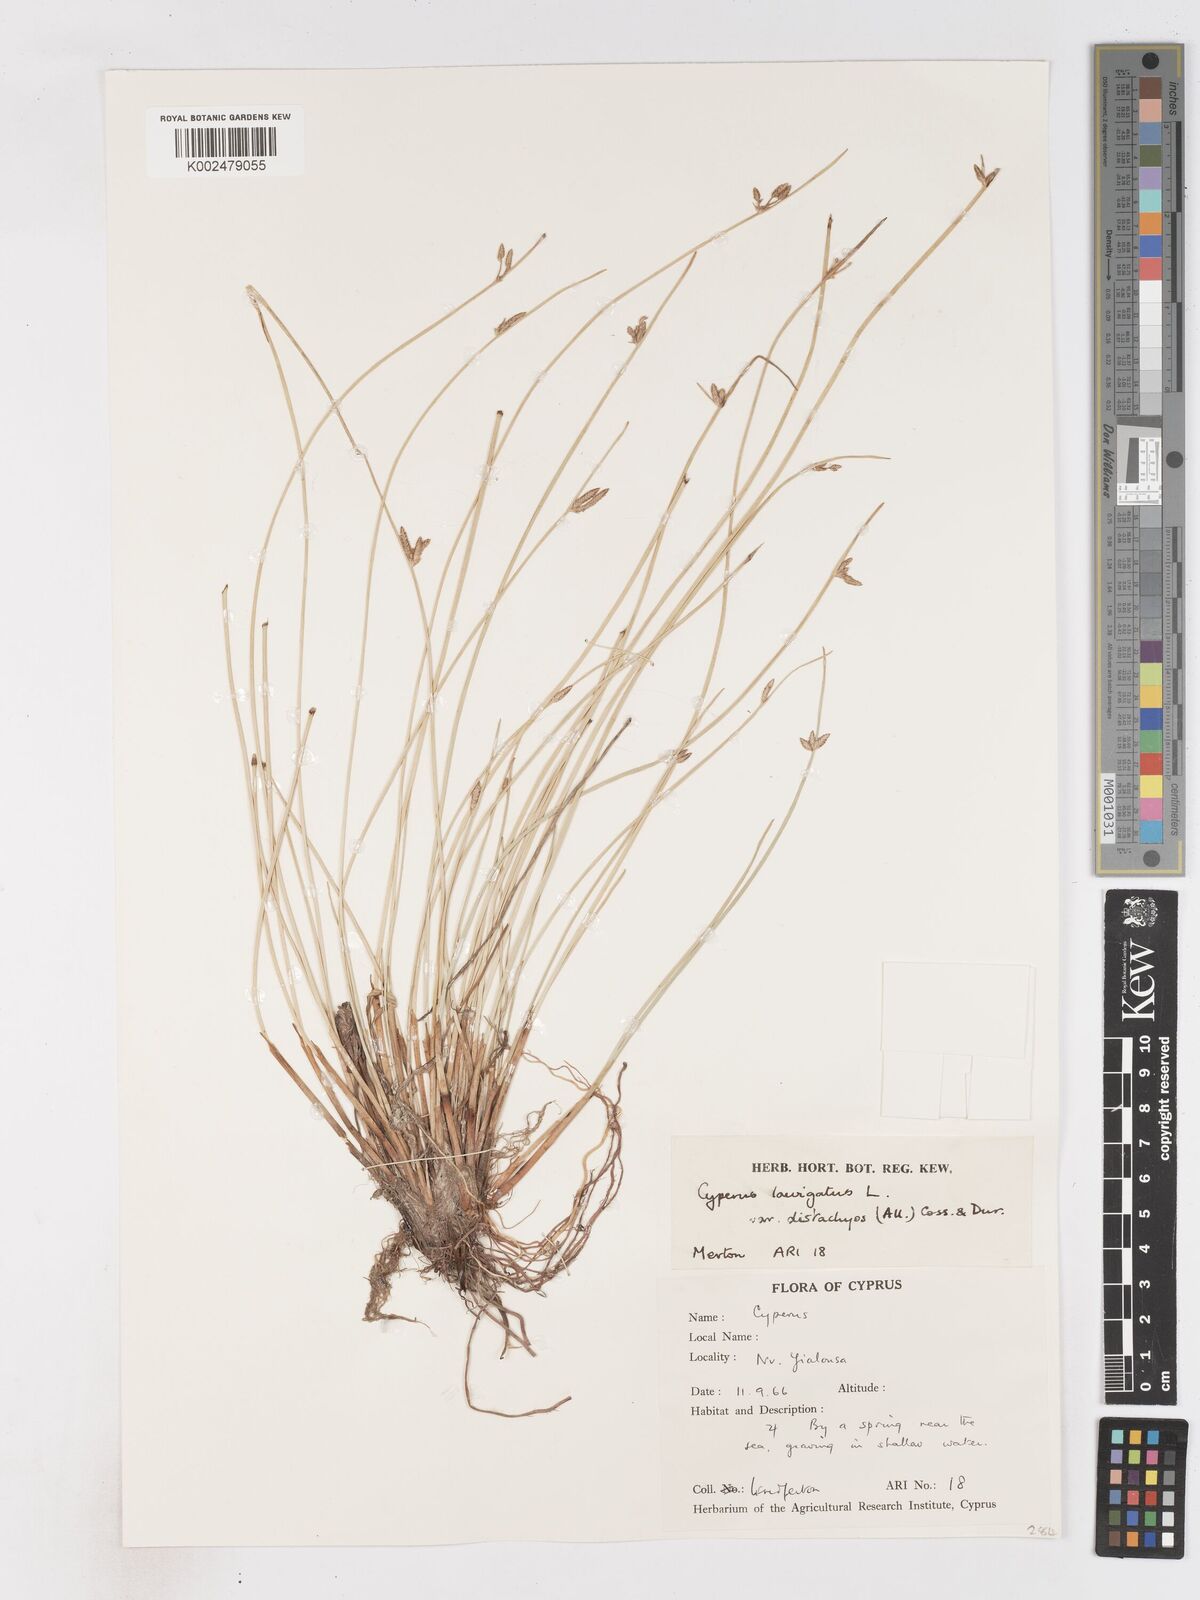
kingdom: Plantae
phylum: Tracheophyta
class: Liliopsida
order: Poales
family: Cyperaceae
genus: Cyperus
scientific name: Cyperus laevigatus
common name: Smooth flat sedge
